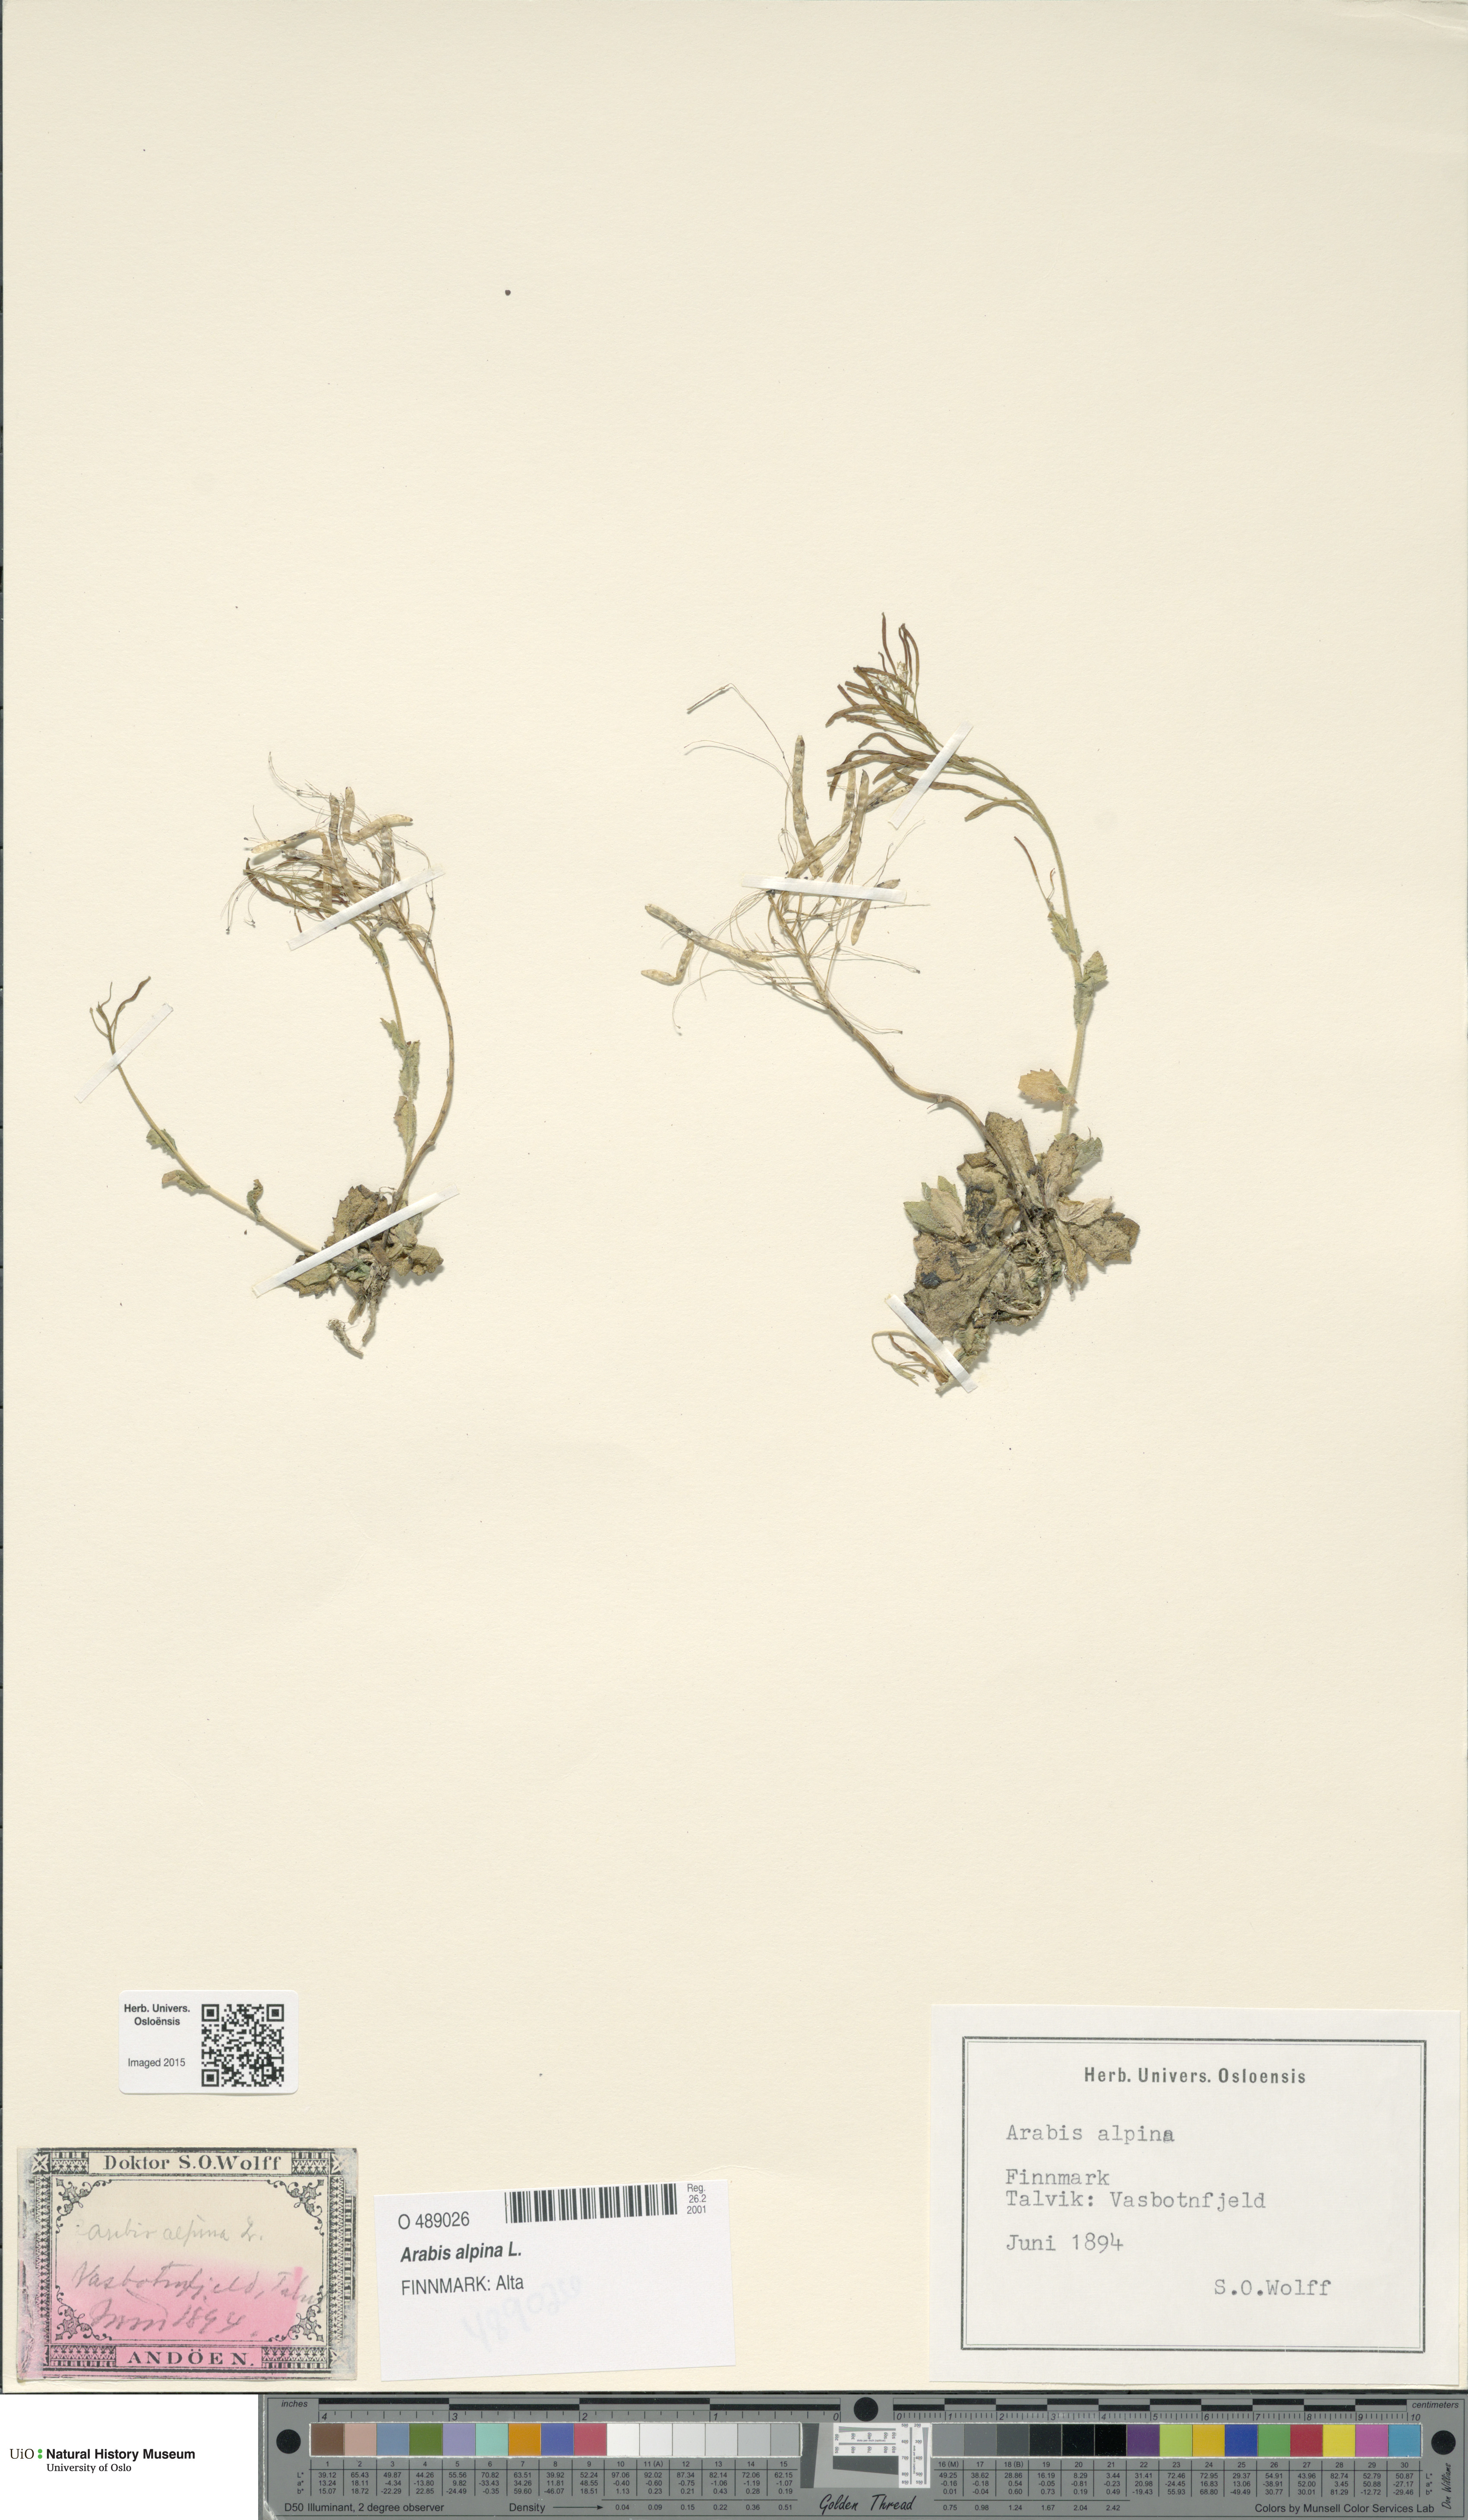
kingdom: Plantae
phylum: Tracheophyta
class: Magnoliopsida
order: Brassicales
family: Brassicaceae
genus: Arabis
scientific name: Arabis alpina
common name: Alpine rock-cress
